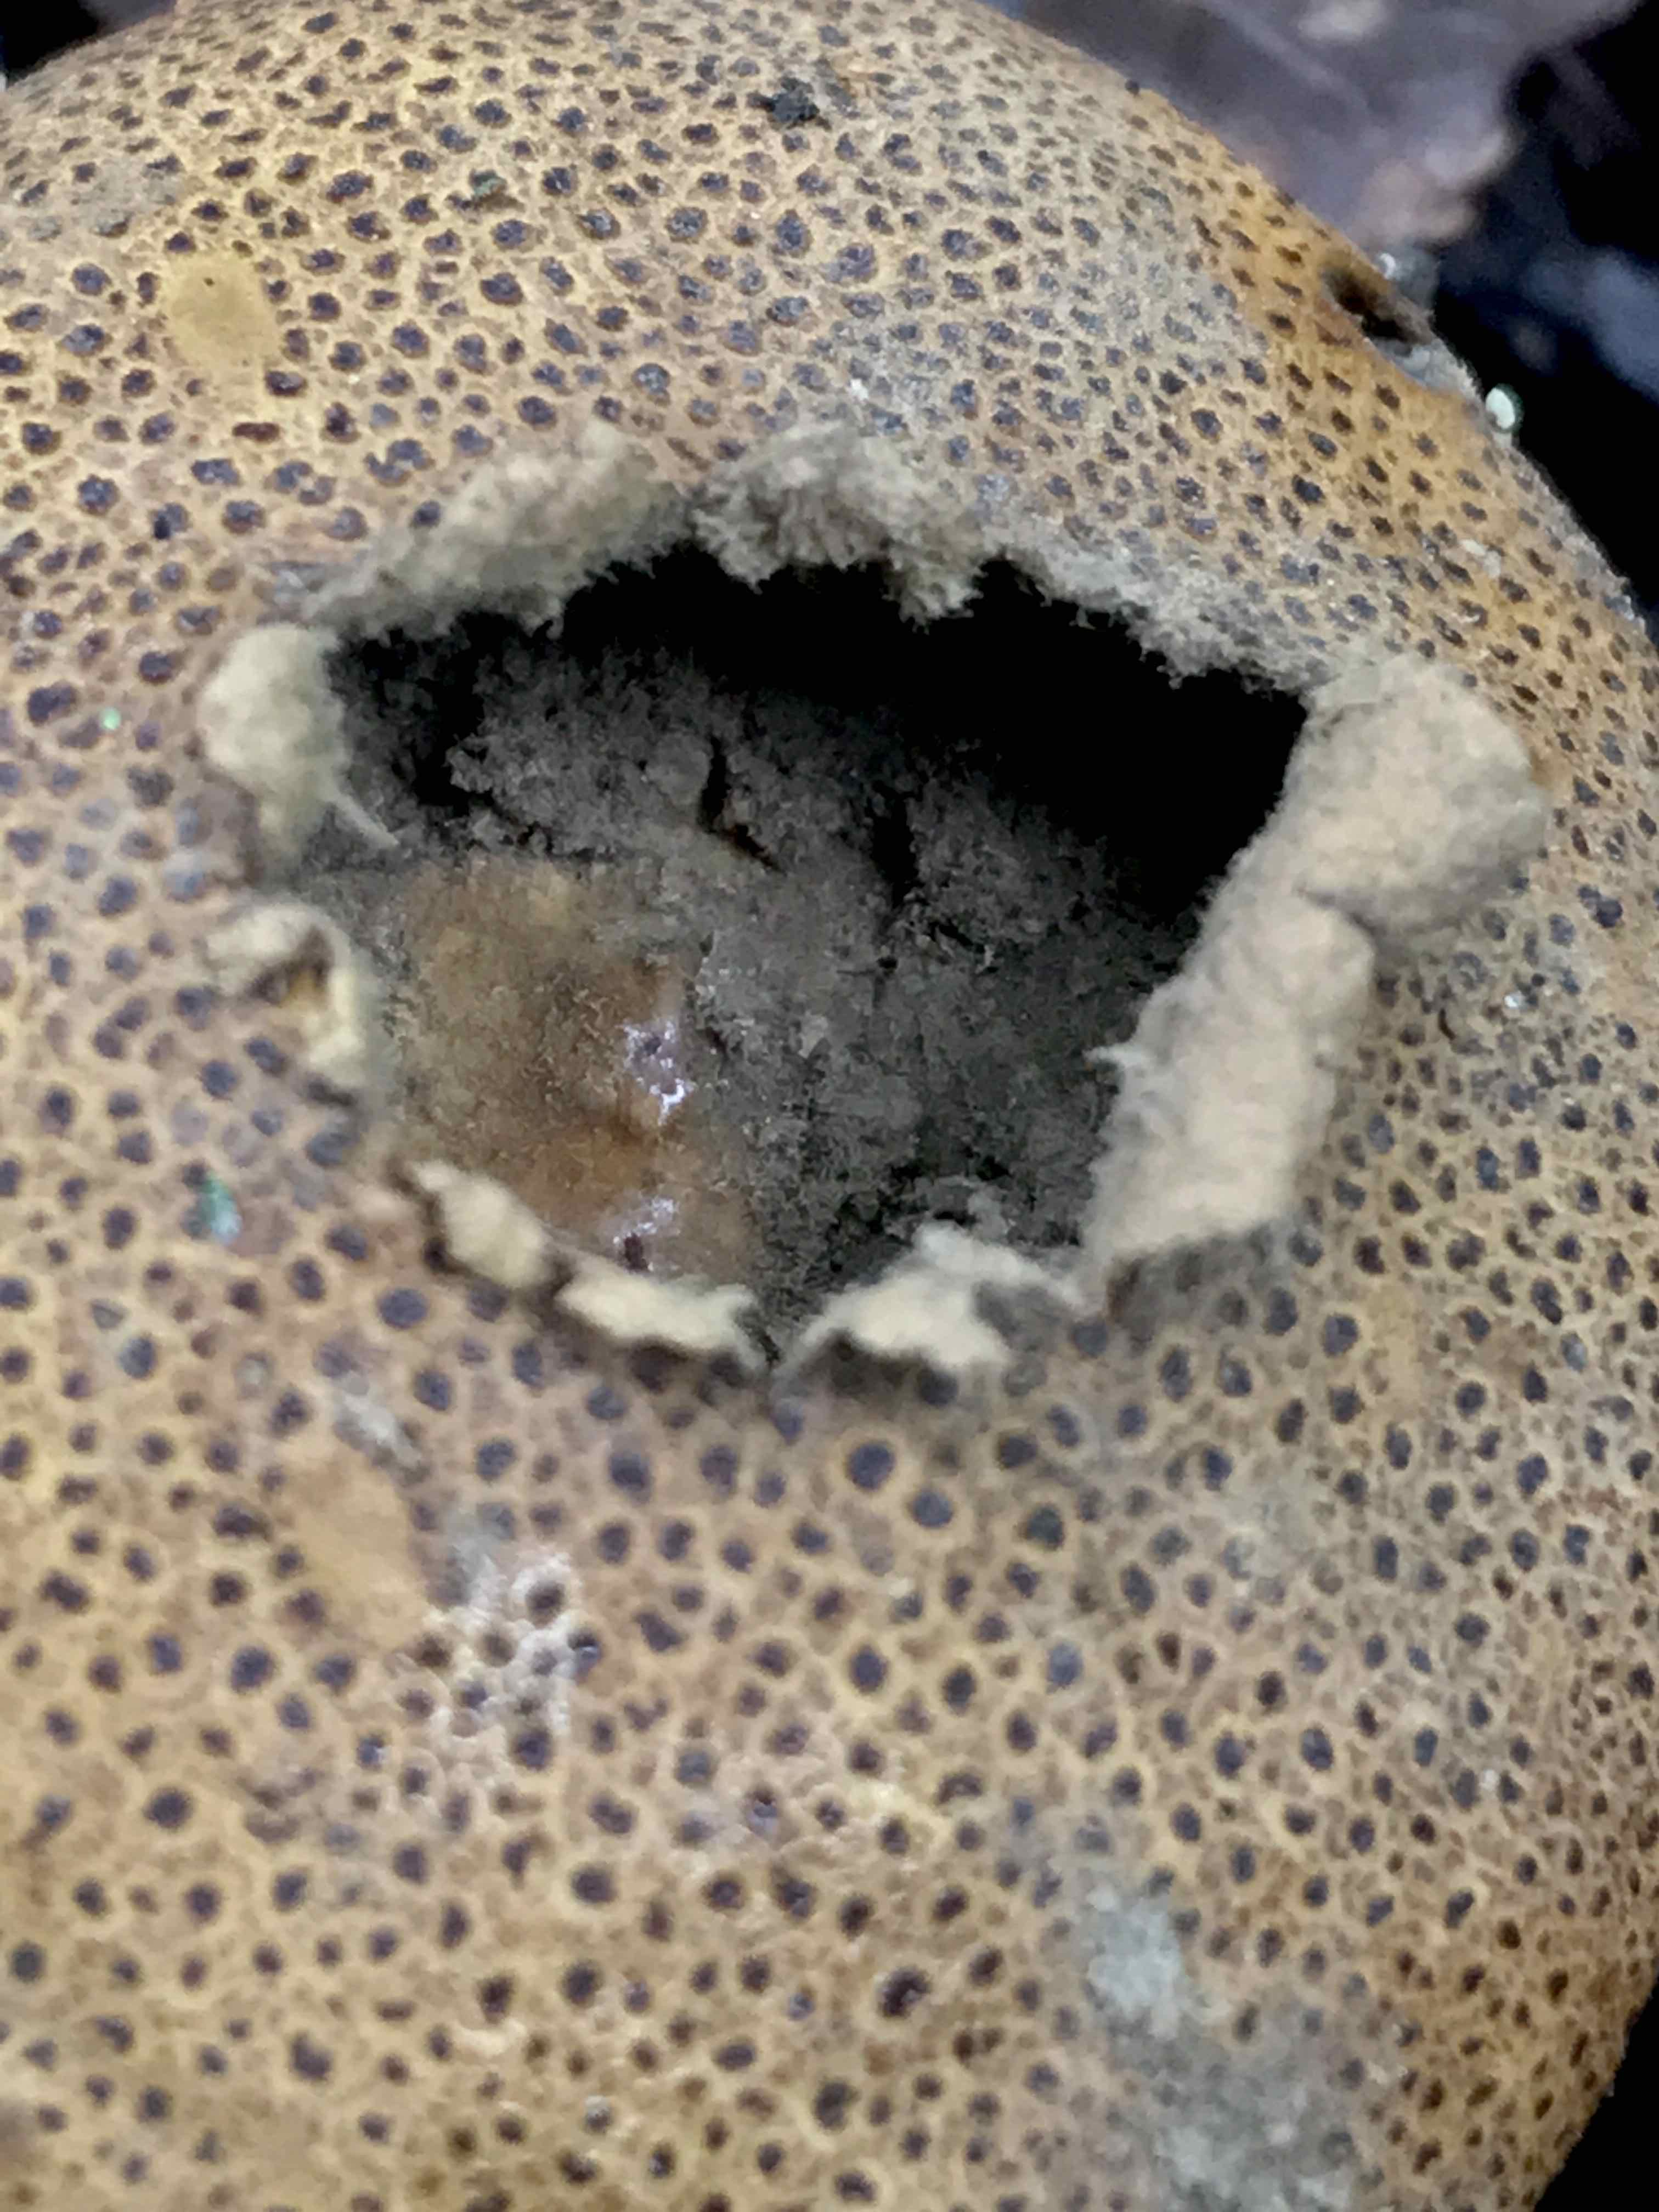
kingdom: Fungi
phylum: Basidiomycota
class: Agaricomycetes
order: Boletales
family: Sclerodermataceae
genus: Scleroderma
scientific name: Scleroderma areolatum
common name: plettet bruskbold
